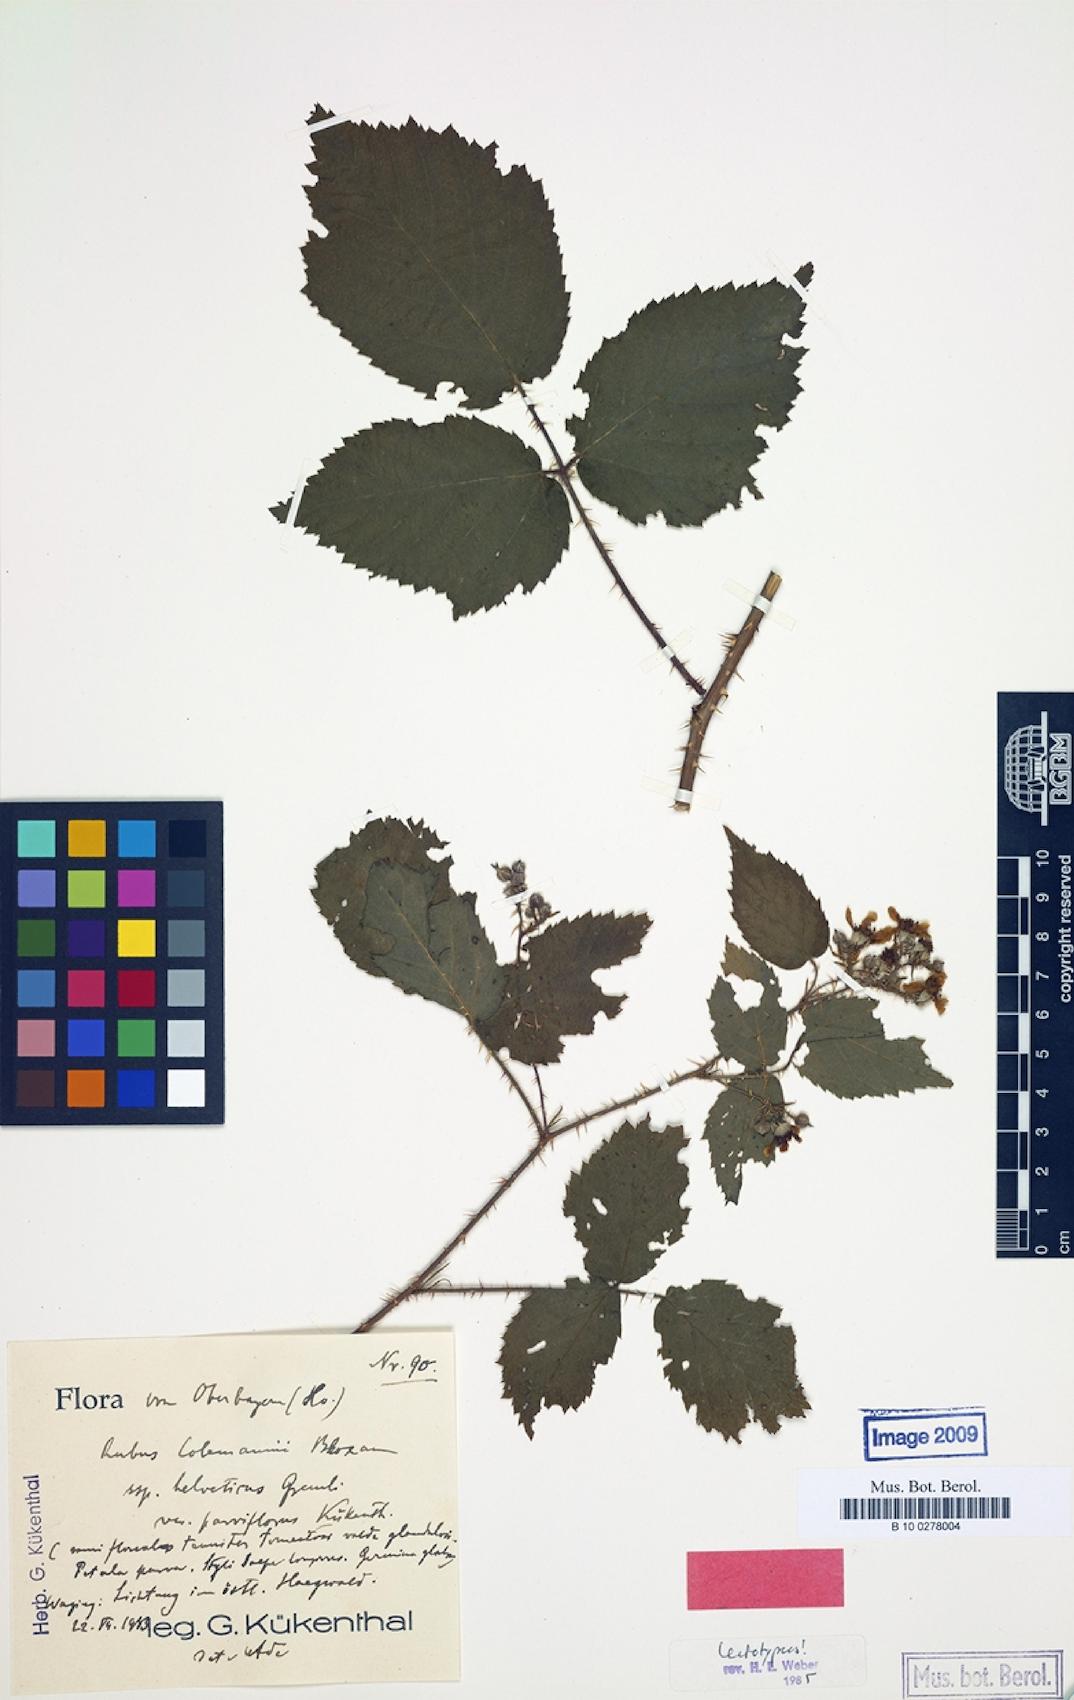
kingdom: Plantae
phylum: Tracheophyta
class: Magnoliopsida
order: Rosales
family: Rosaceae
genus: Rubus
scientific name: Rubus amphistrophos
